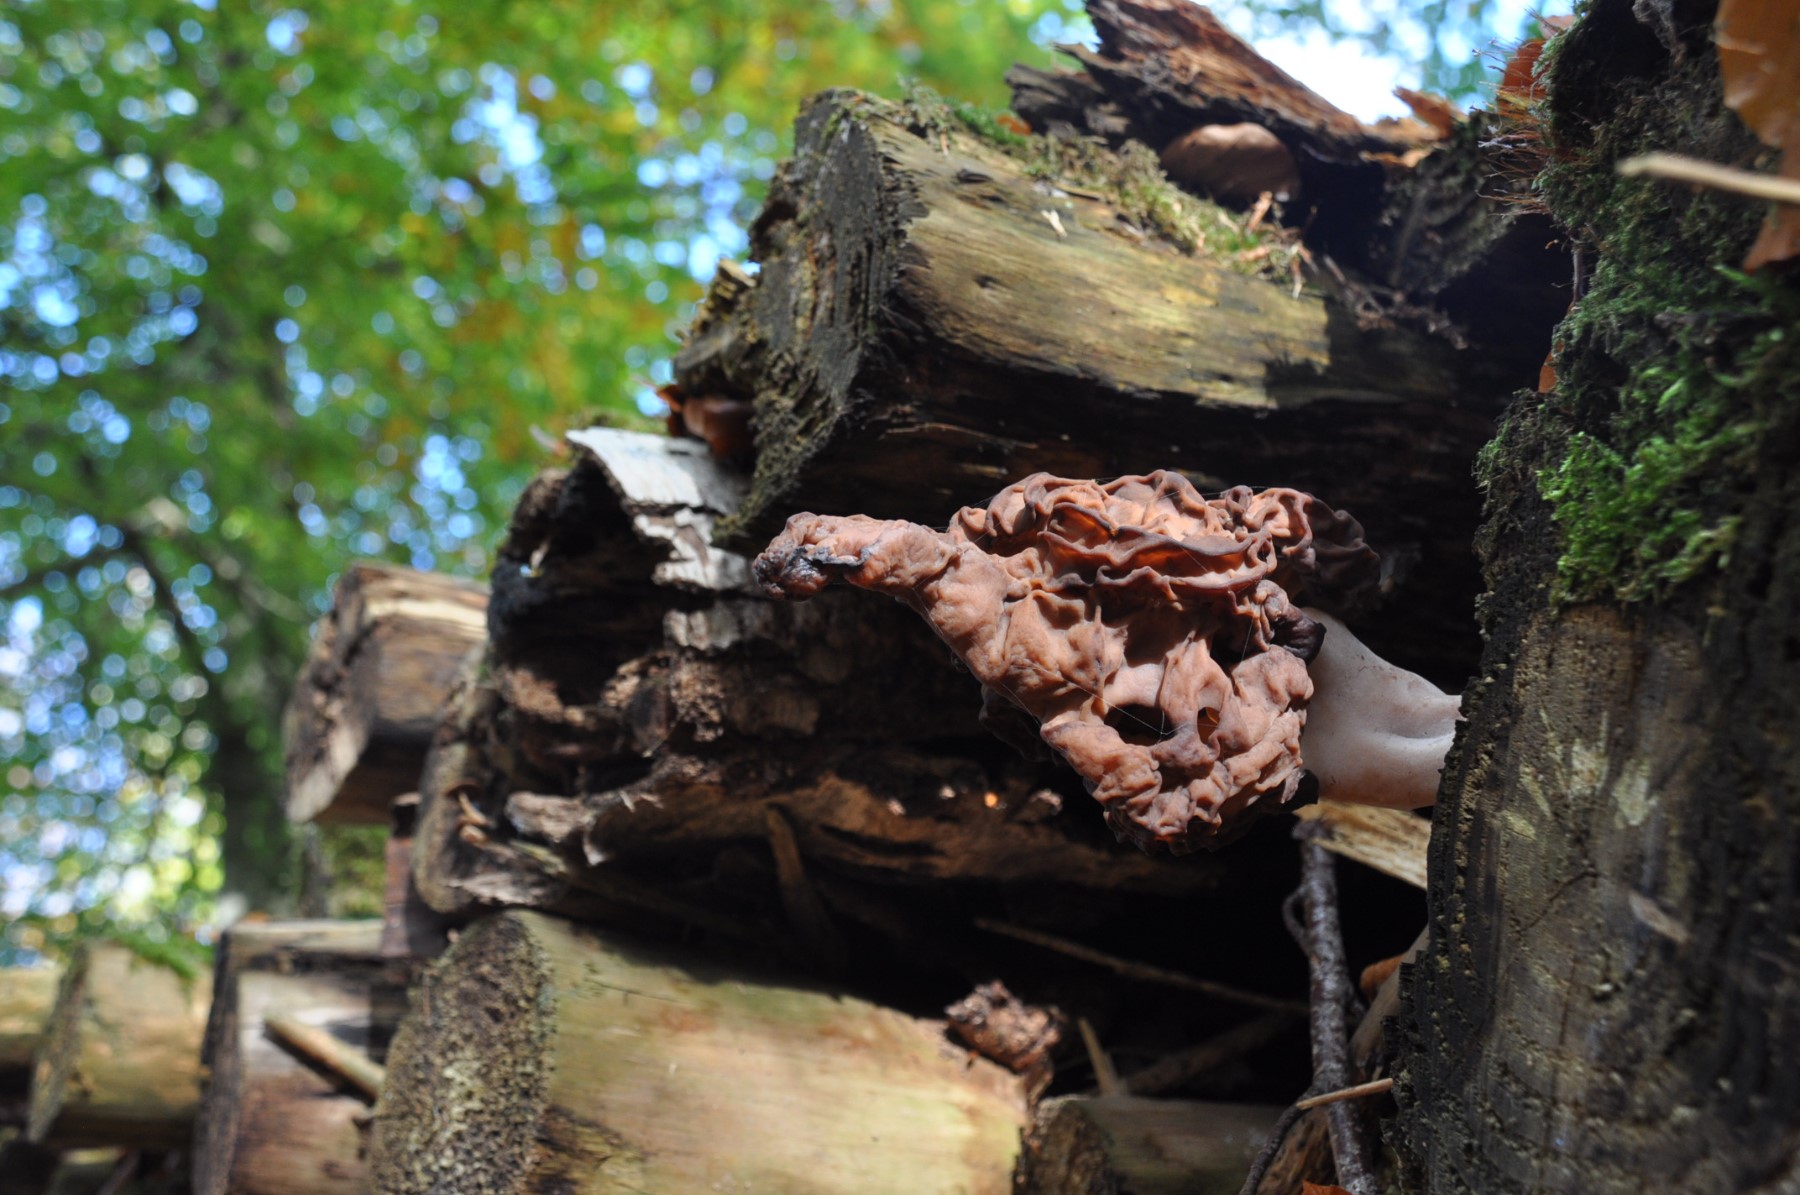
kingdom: Fungi
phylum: Ascomycota
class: Pezizomycetes
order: Pezizales
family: Discinaceae
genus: Gyromitra
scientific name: Gyromitra infula
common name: bispehue-stenmorkel
